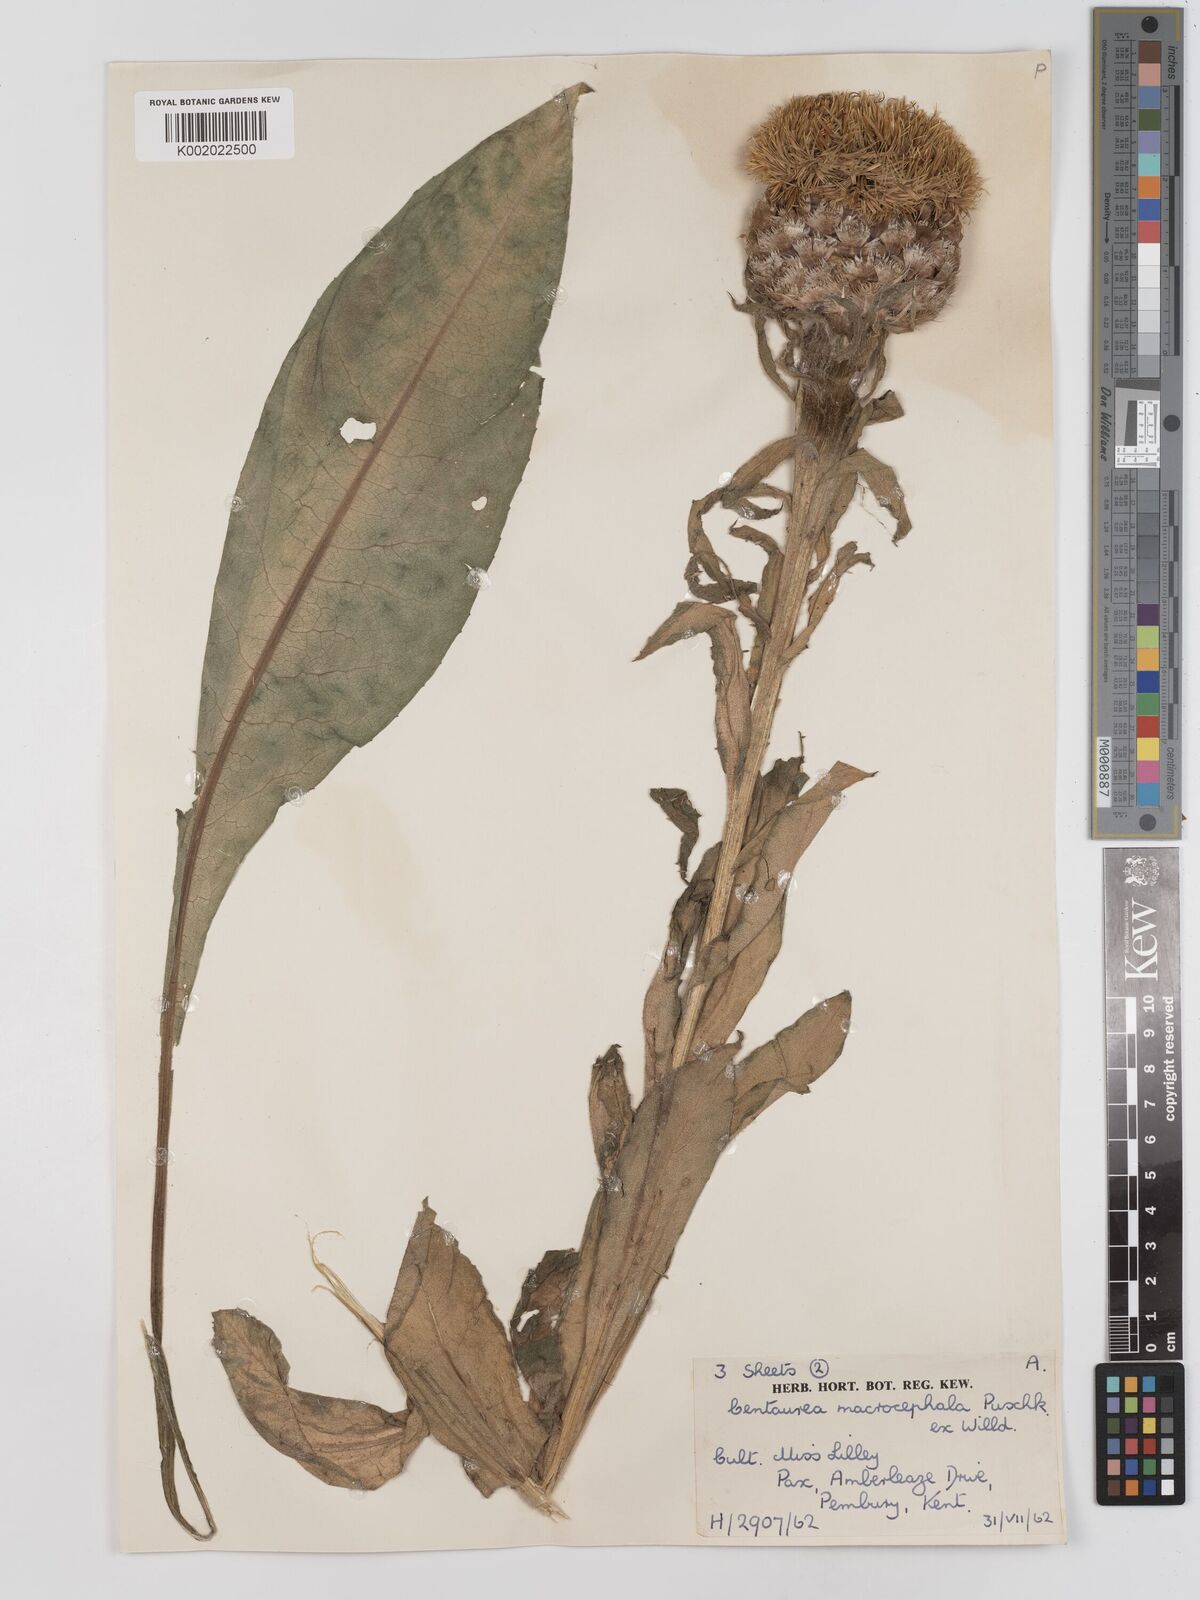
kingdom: Plantae
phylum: Tracheophyta
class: Magnoliopsida
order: Asterales
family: Asteraceae
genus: Centaurea
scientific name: Centaurea macrocephala
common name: Big-head knapweed
